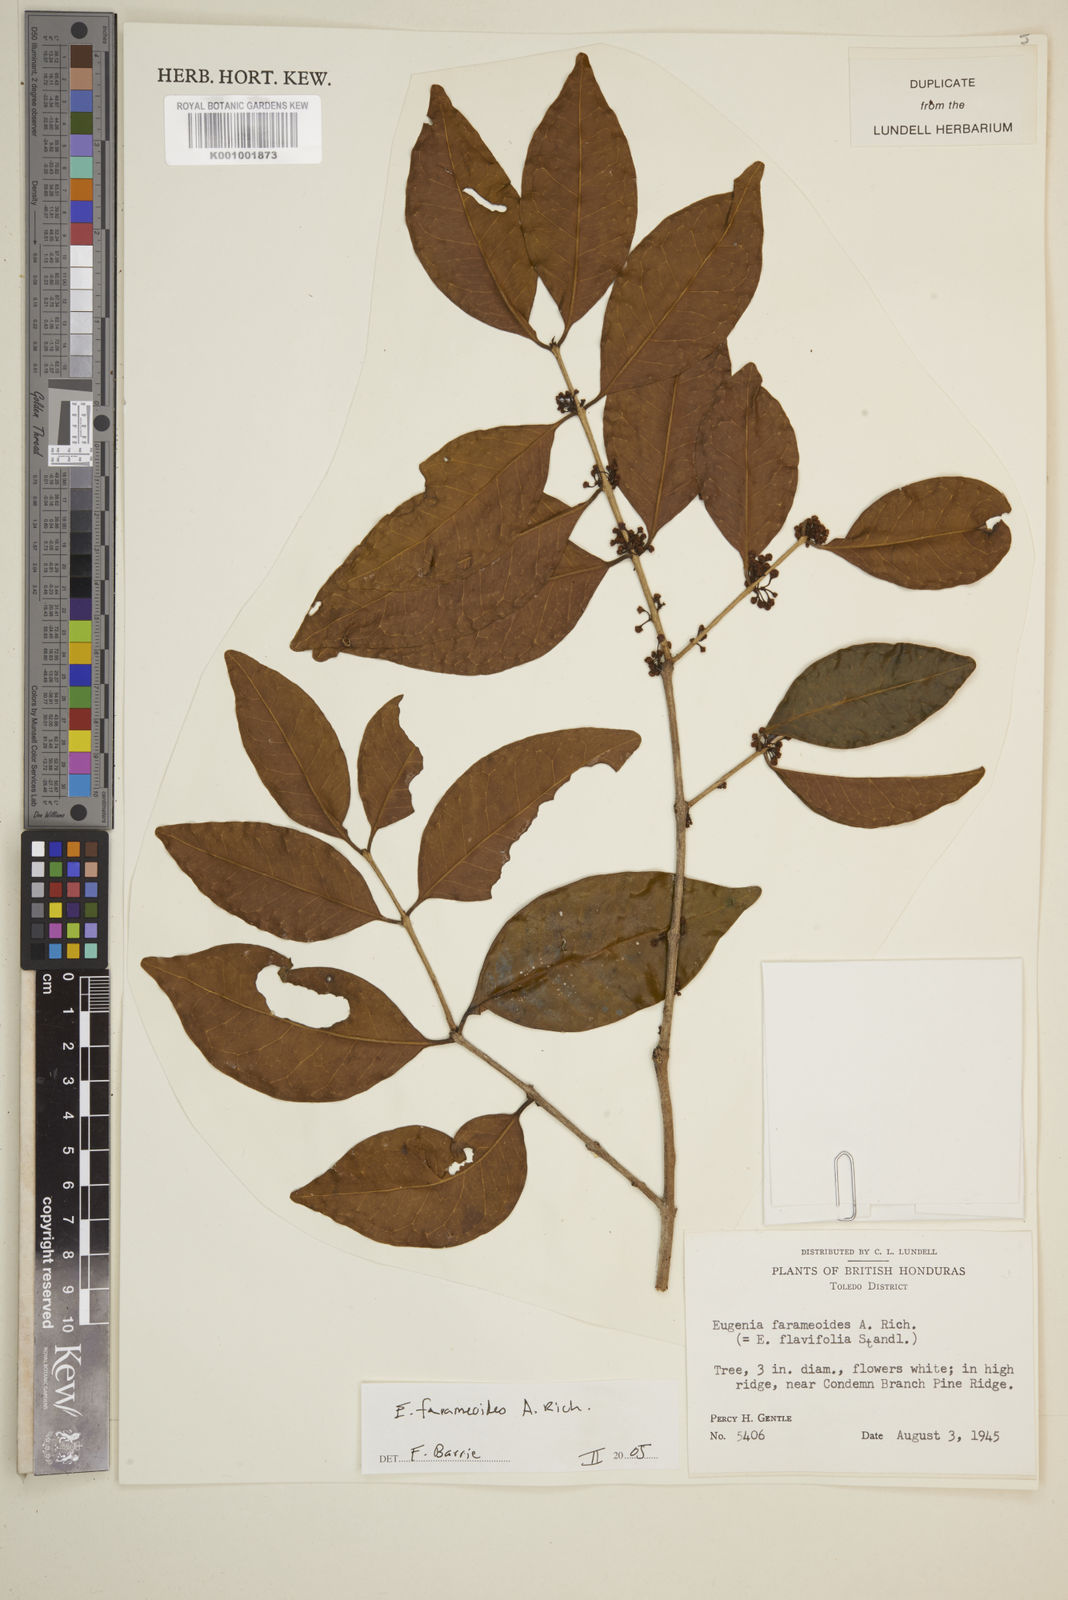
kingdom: Plantae
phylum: Tracheophyta
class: Magnoliopsida
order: Myrtales
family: Myrtaceae
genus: Eugenia
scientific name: Eugenia farameoides
